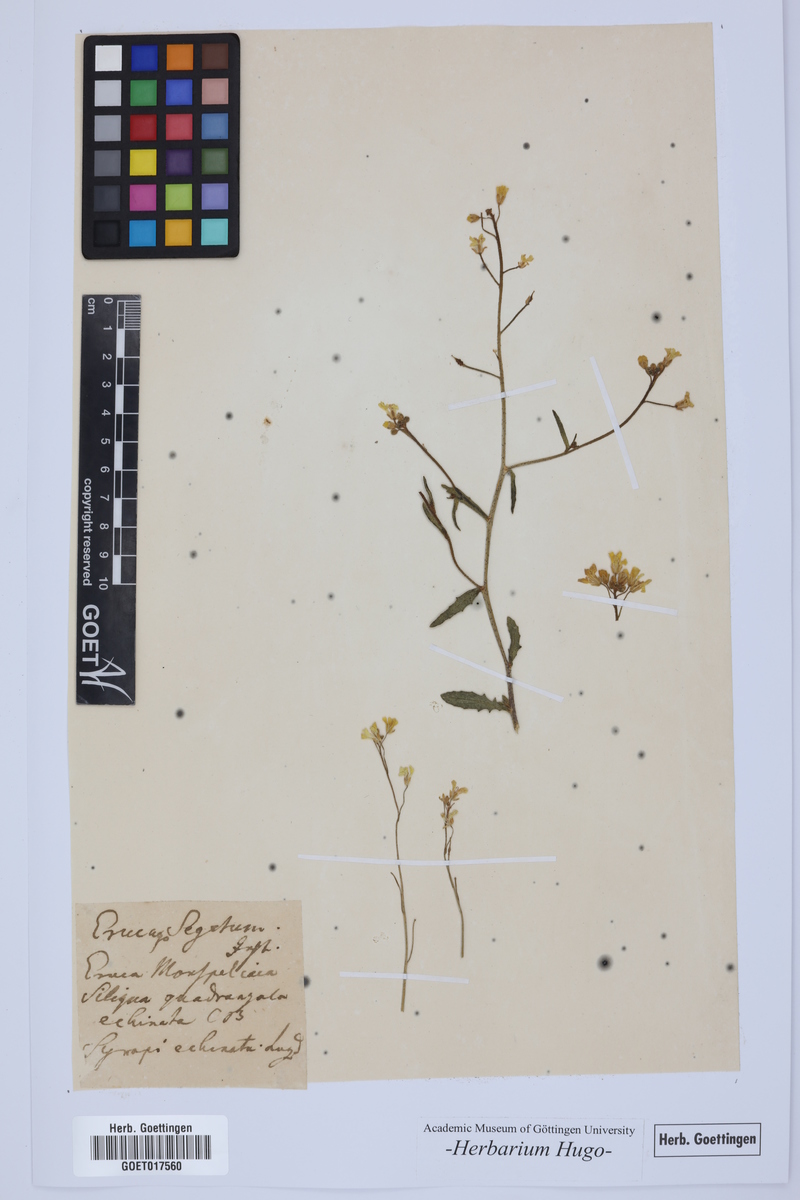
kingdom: Plantae
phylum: Tracheophyta
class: Magnoliopsida
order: Brassicales
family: Brassicaceae
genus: Bunias
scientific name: Bunias erucago
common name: Southern warty-cabbage
